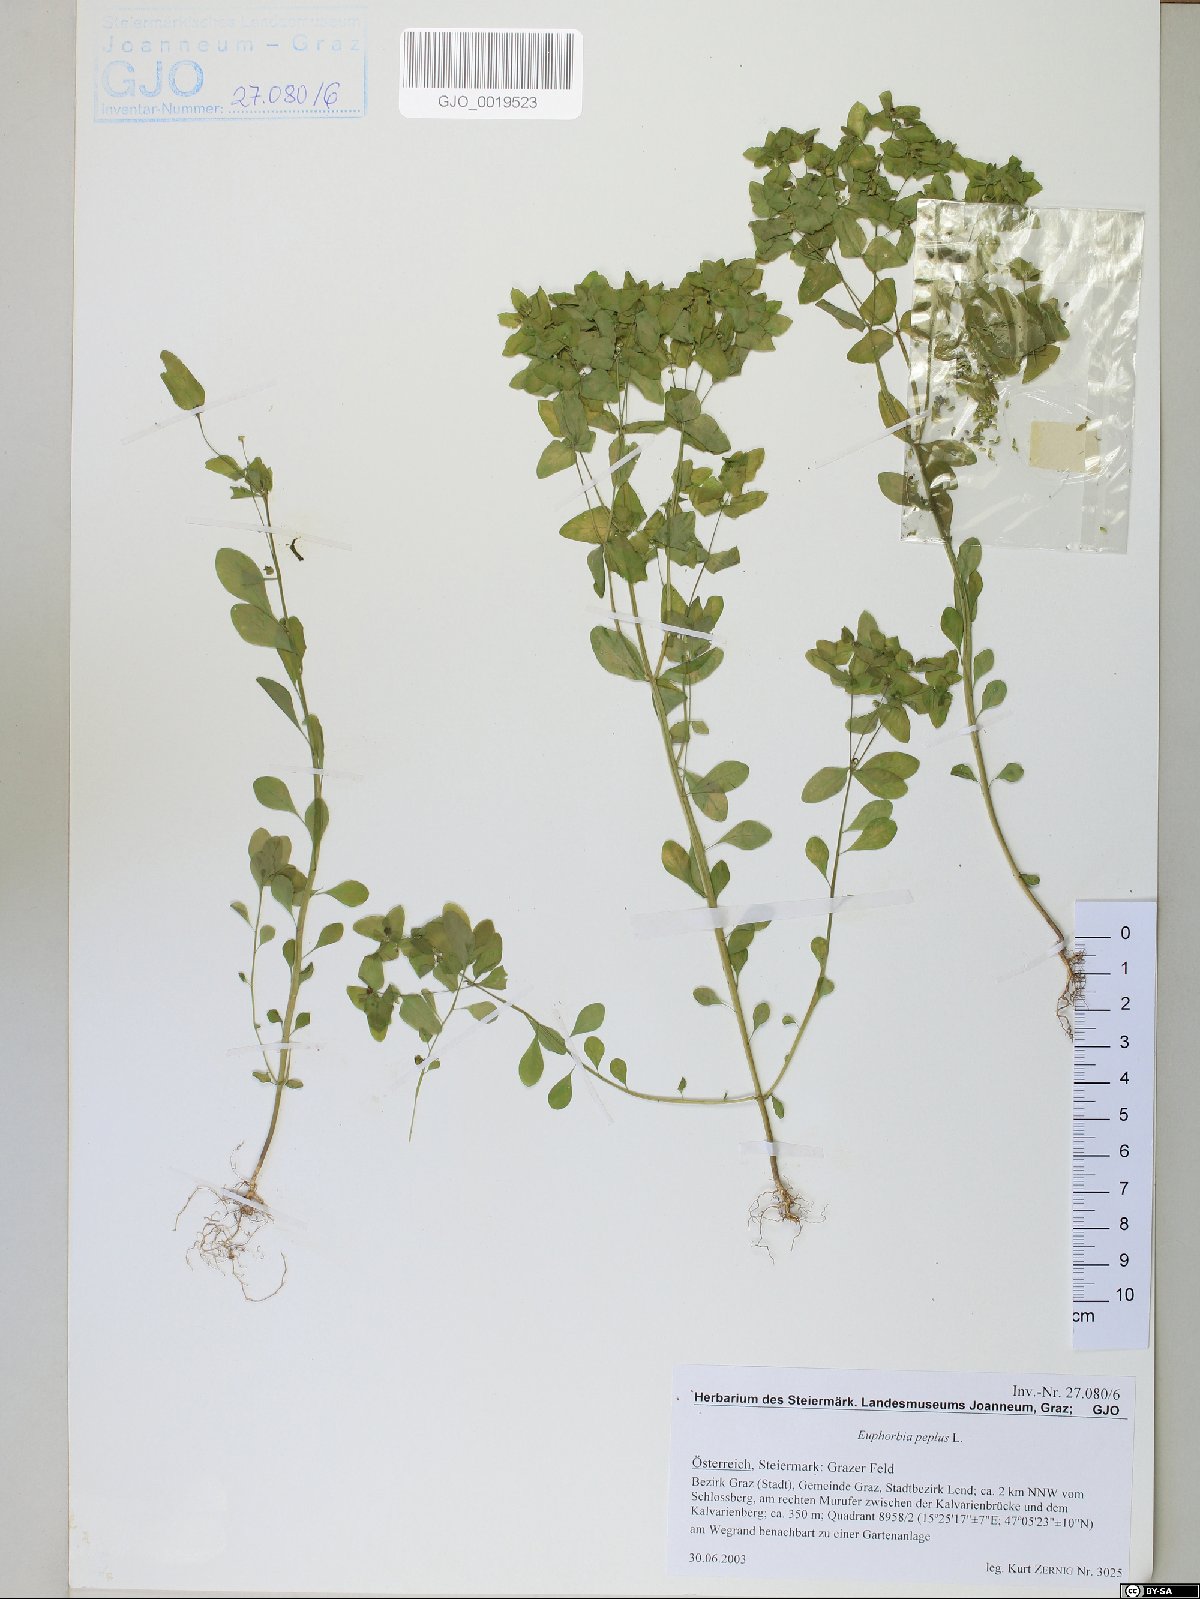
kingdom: Plantae
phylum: Tracheophyta
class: Magnoliopsida
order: Malpighiales
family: Euphorbiaceae
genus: Euphorbia
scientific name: Euphorbia peplus
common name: Petty spurge
